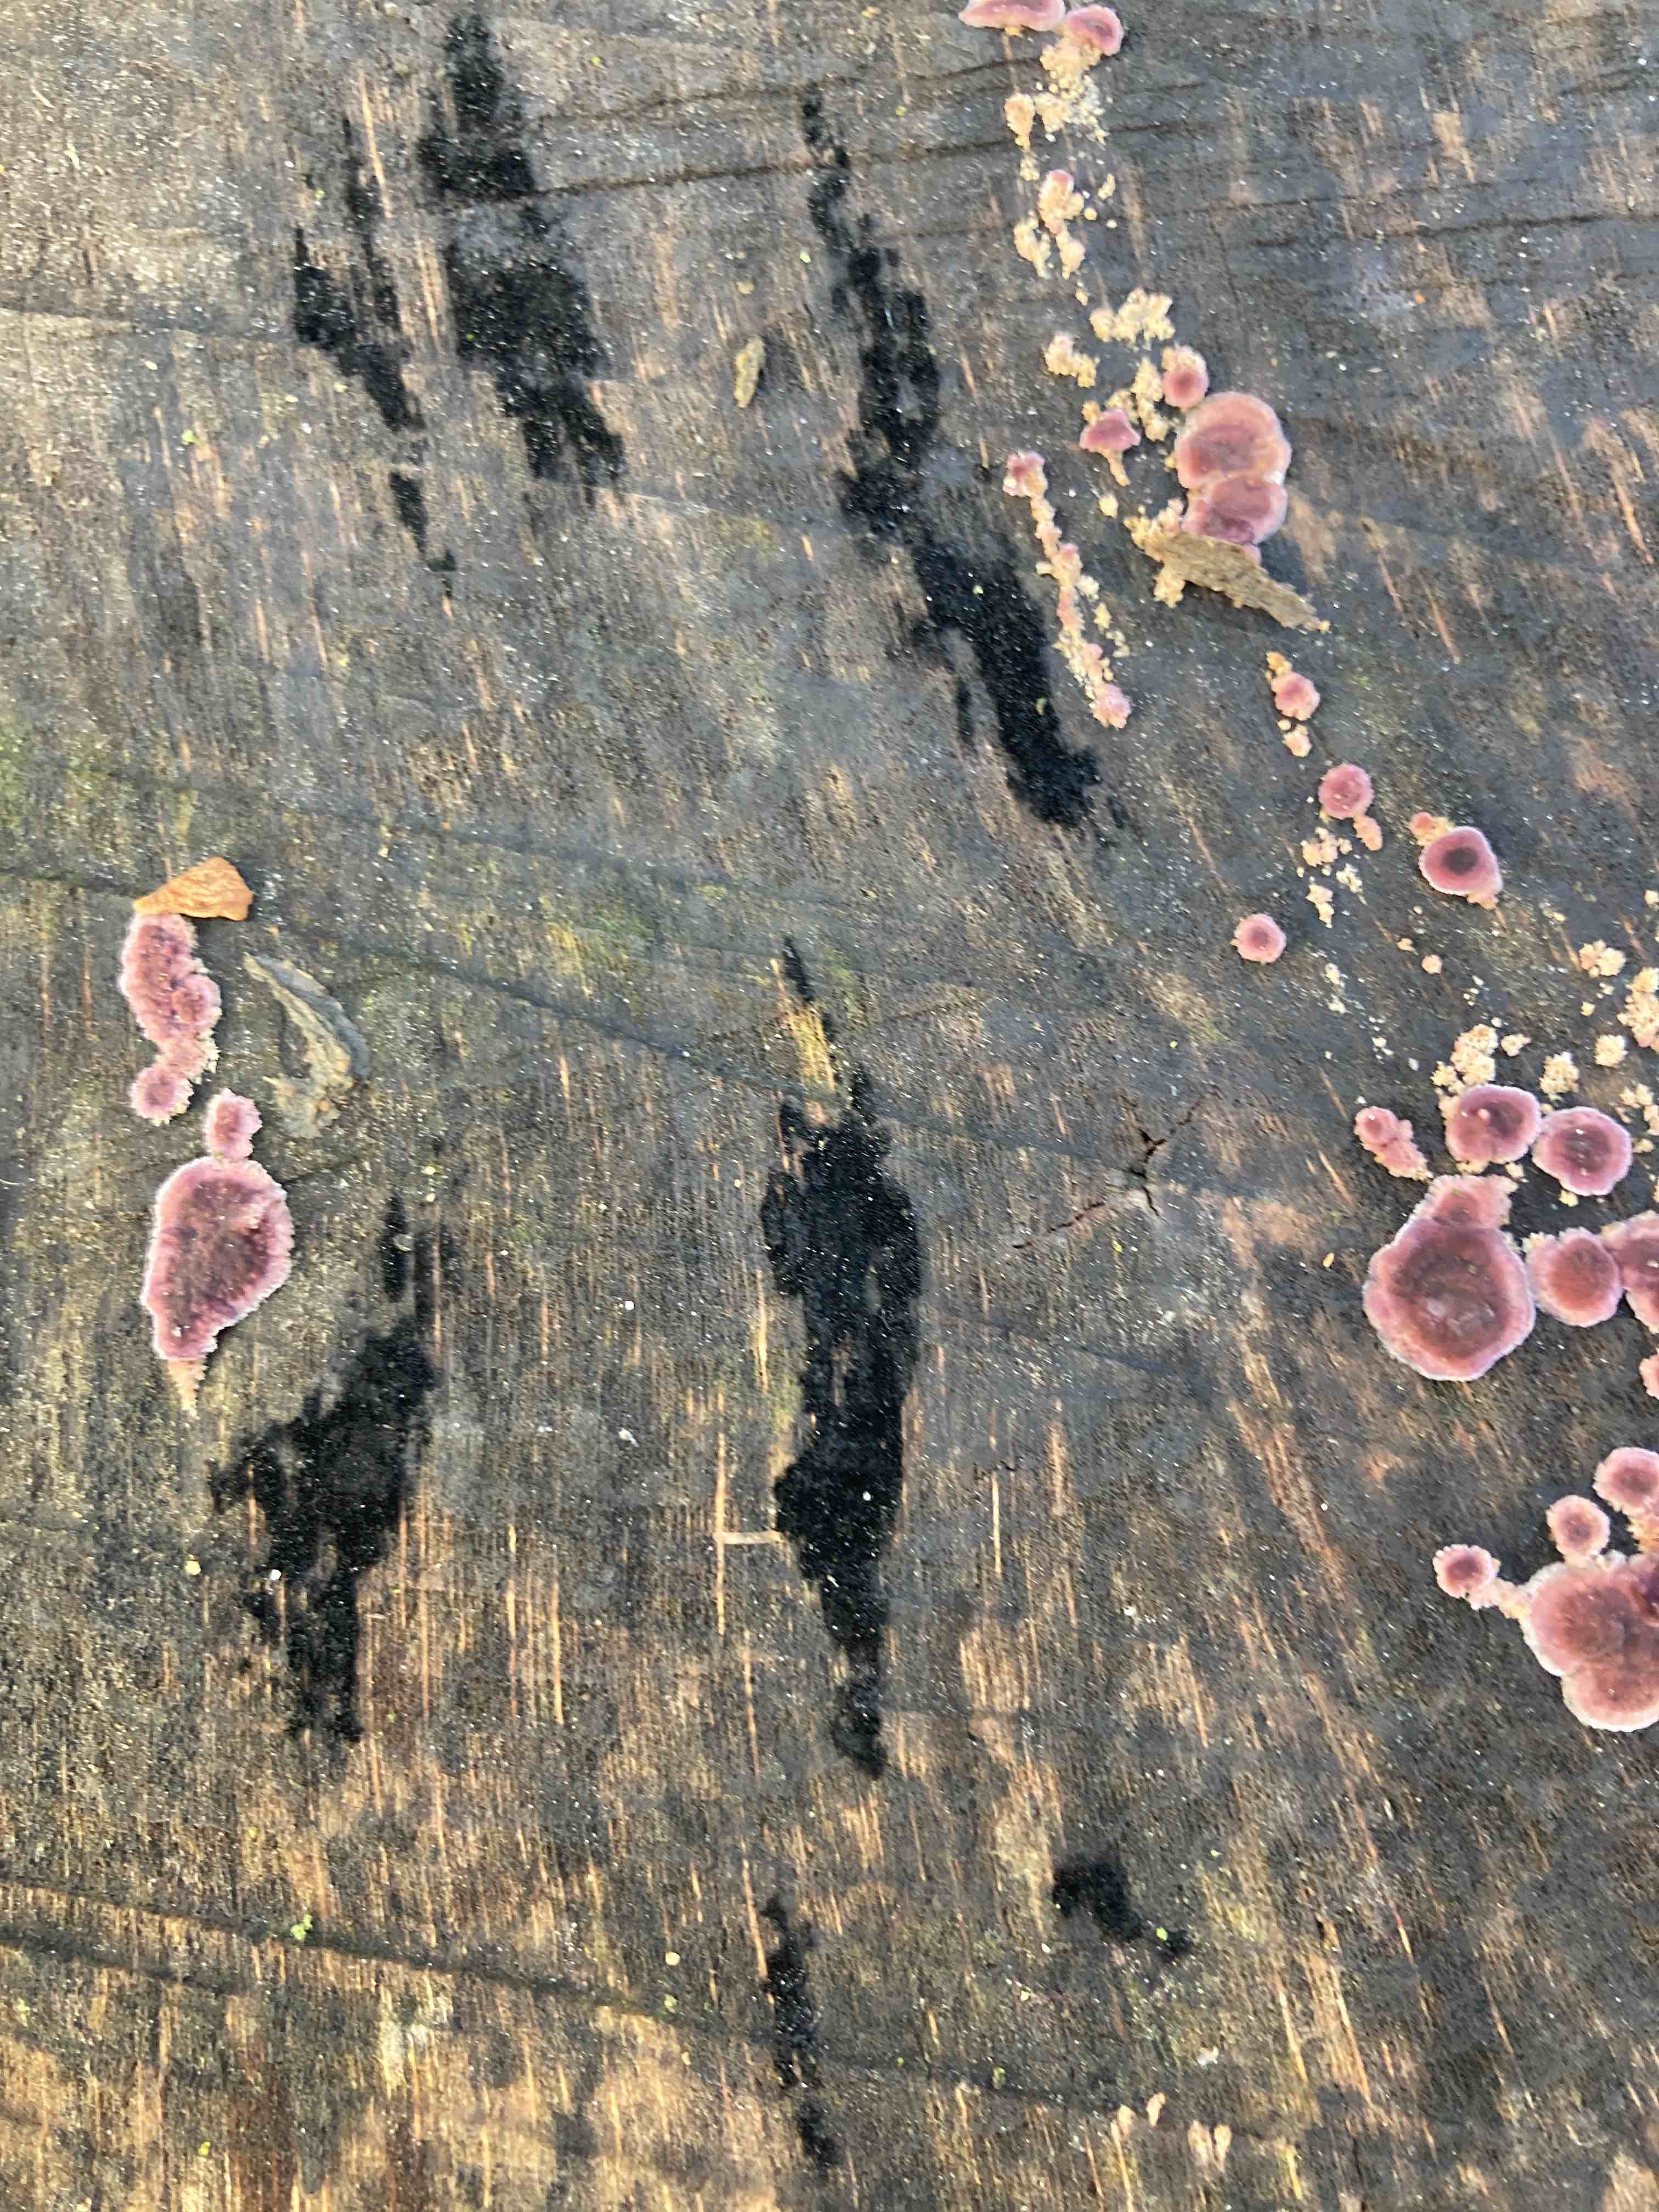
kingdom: Fungi
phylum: Ascomycota
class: Leotiomycetes
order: Helotiales
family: Helotiaceae
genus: Bispora
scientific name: Bispora pallescens
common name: måtte-snitskive
